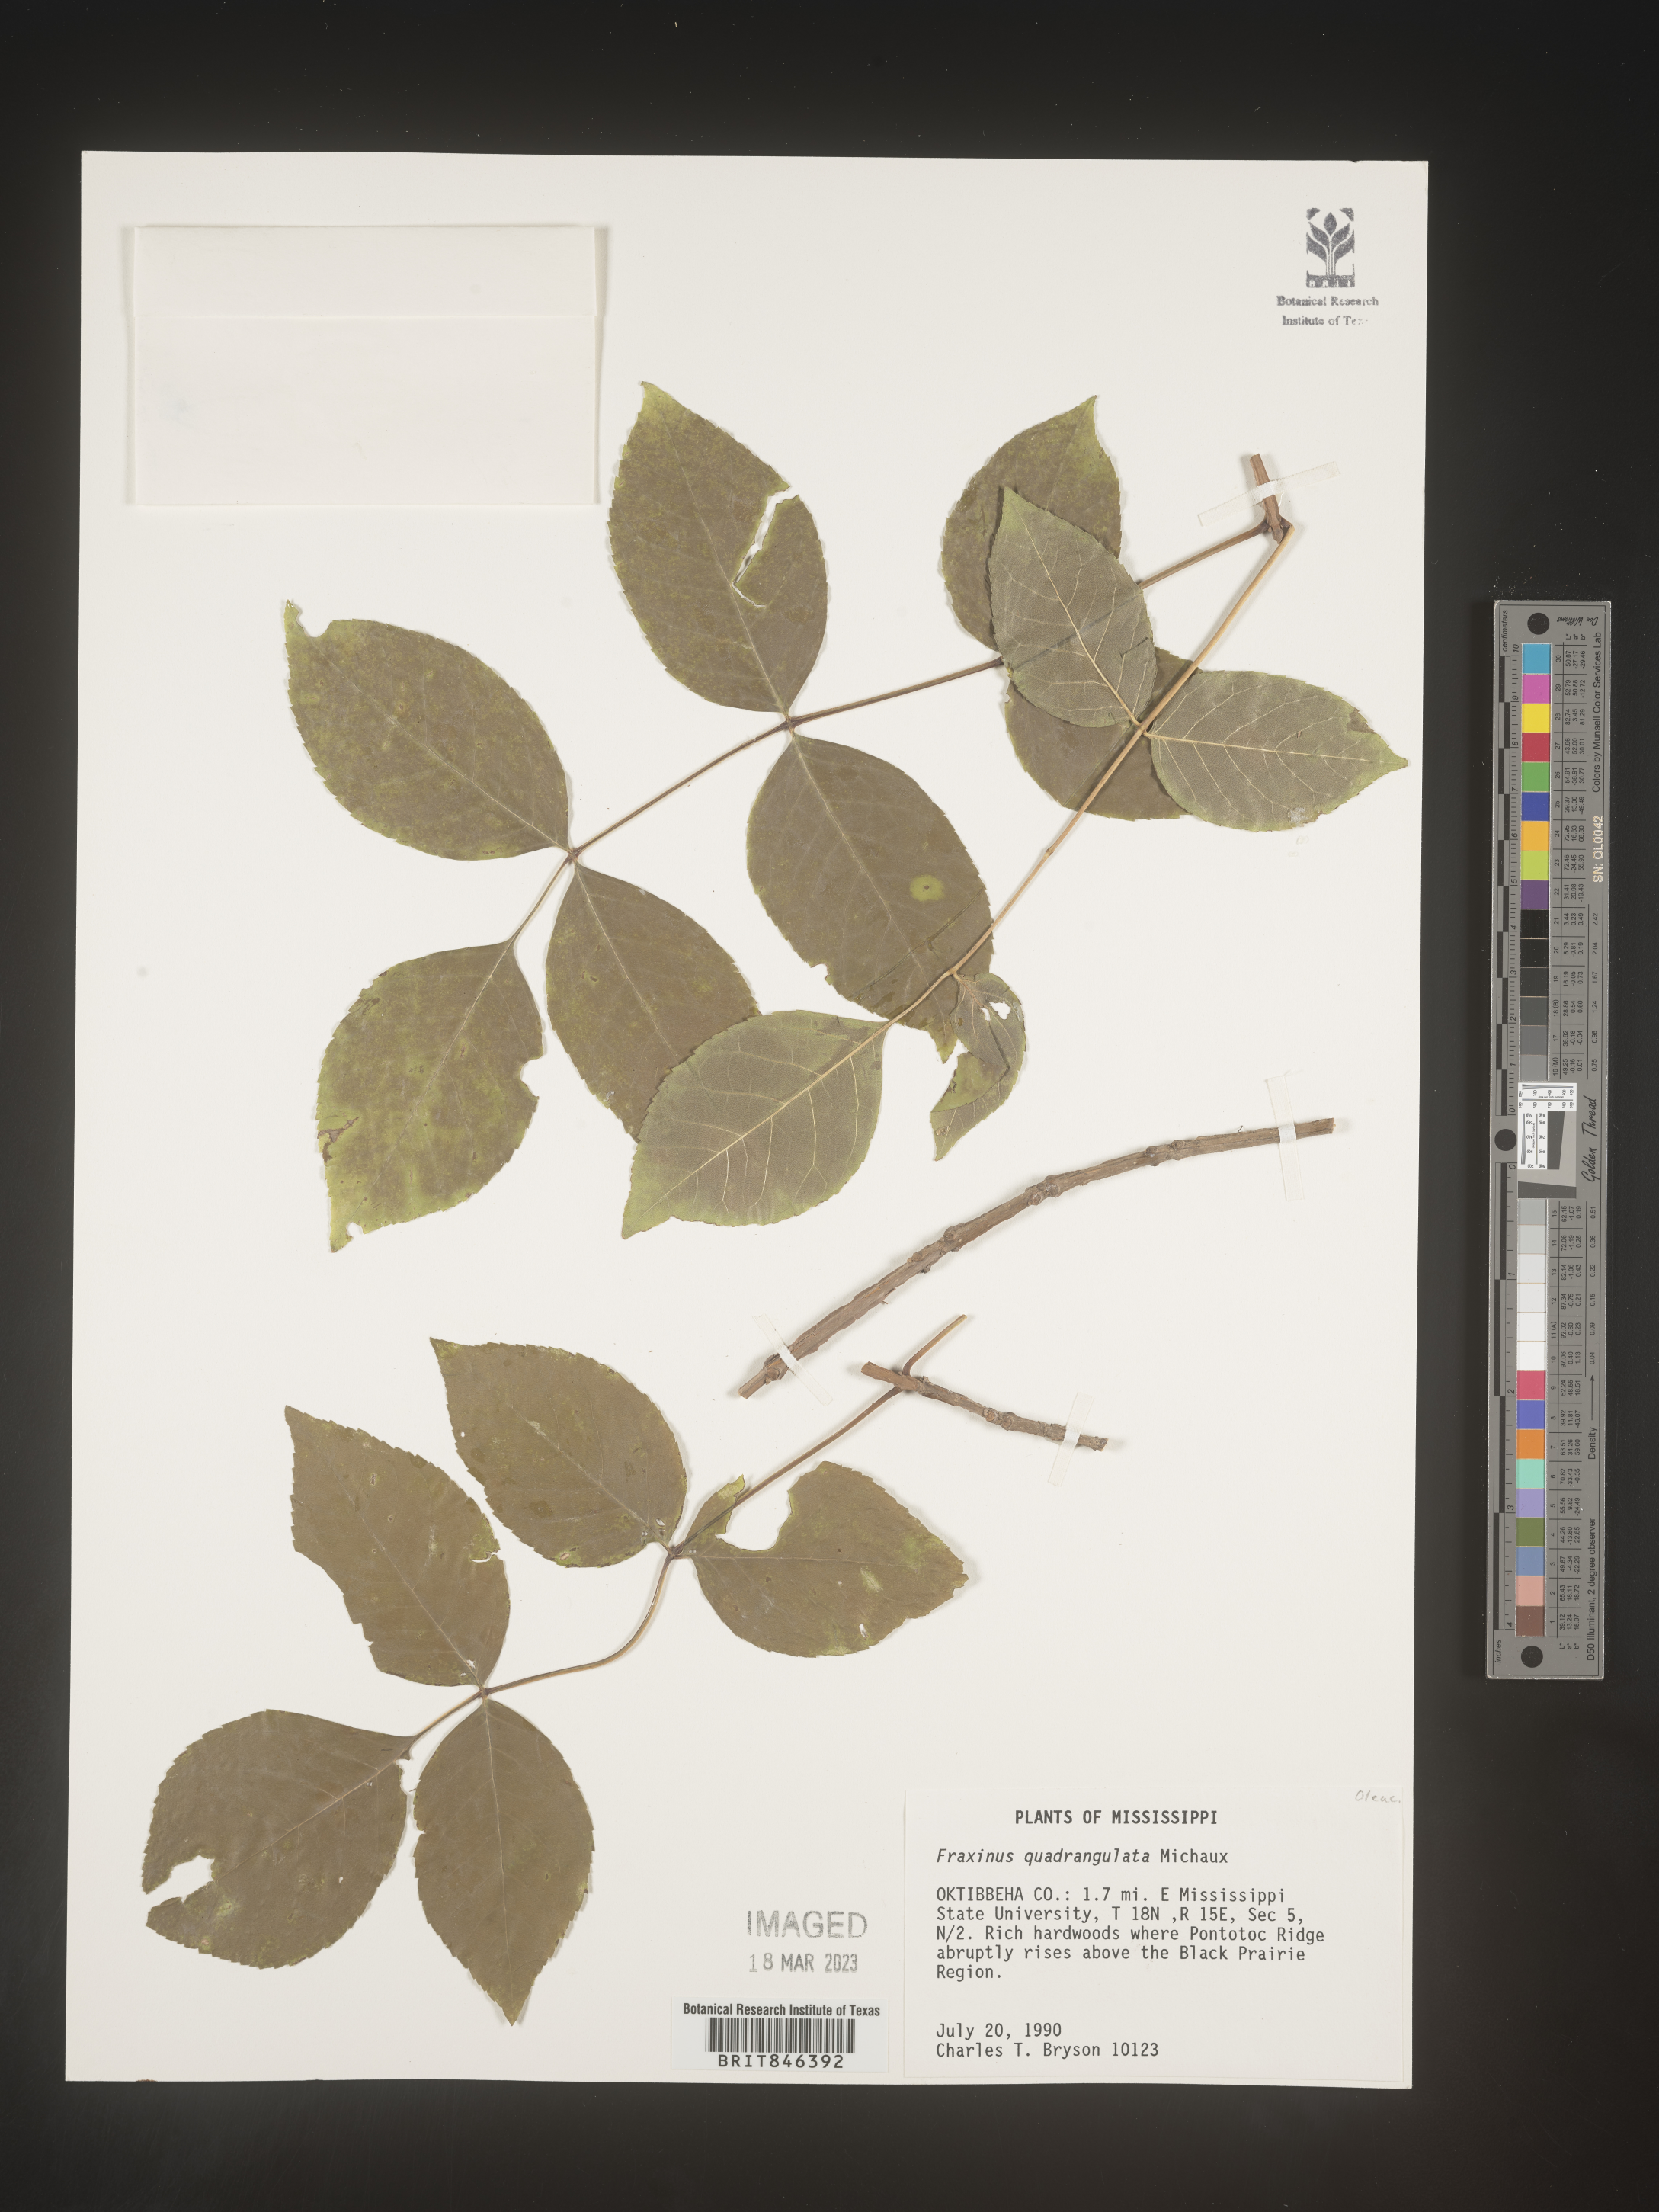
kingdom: Plantae
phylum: Tracheophyta
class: Magnoliopsida
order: Lamiales
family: Oleaceae
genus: Fraxinus
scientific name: Fraxinus quadrangulata
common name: Blue ash
